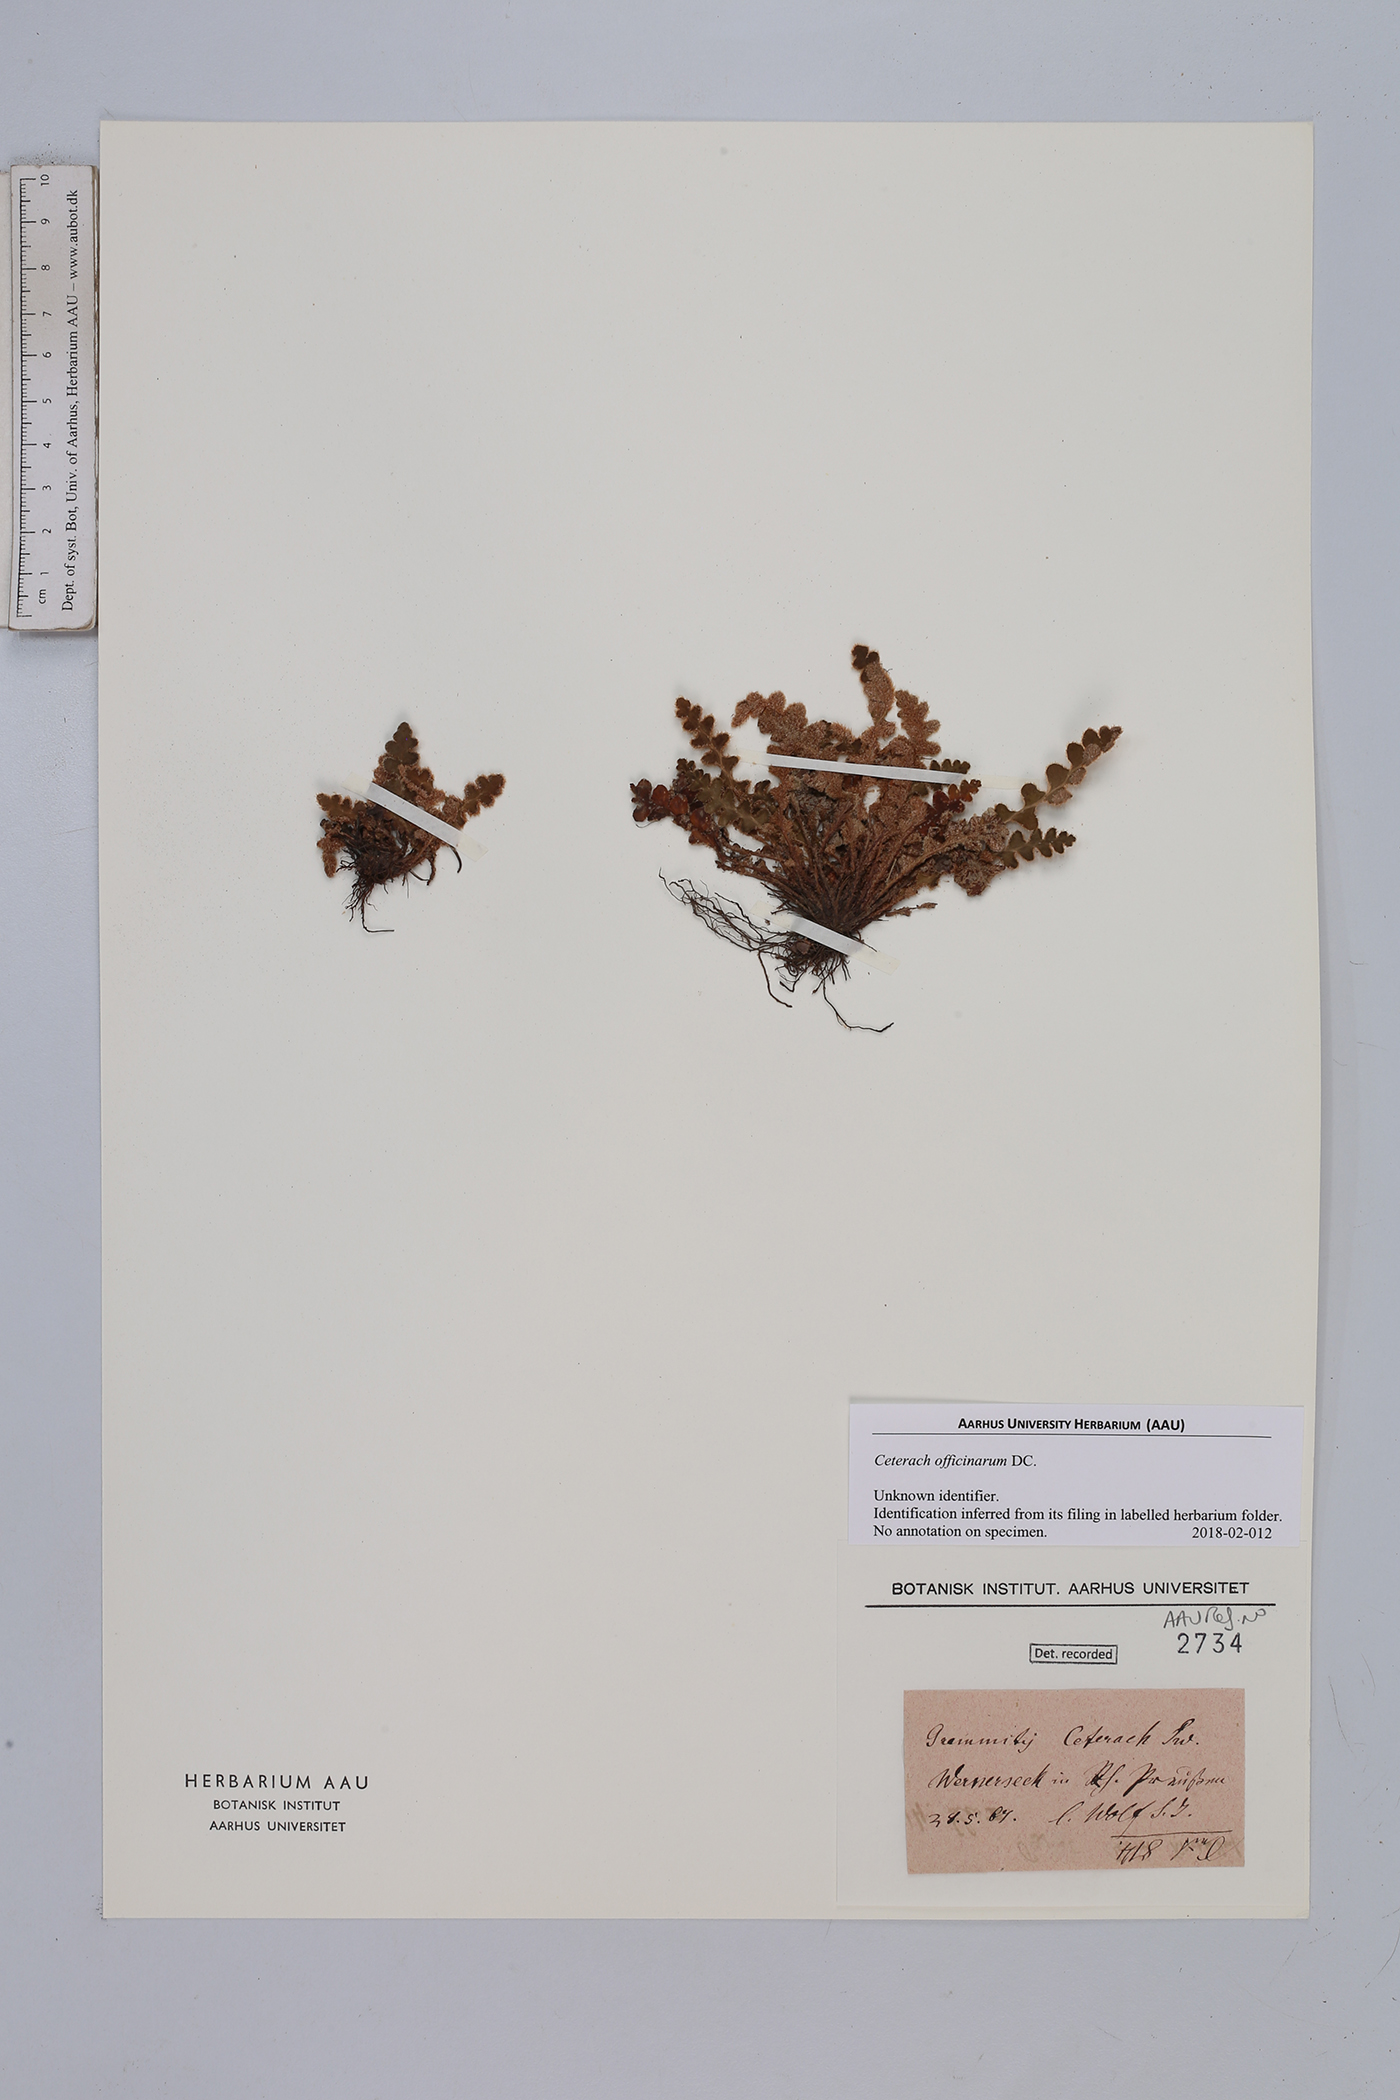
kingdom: Plantae
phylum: Tracheophyta
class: Polypodiopsida
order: Polypodiales
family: Aspleniaceae
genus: Asplenium
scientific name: Asplenium ceterach
